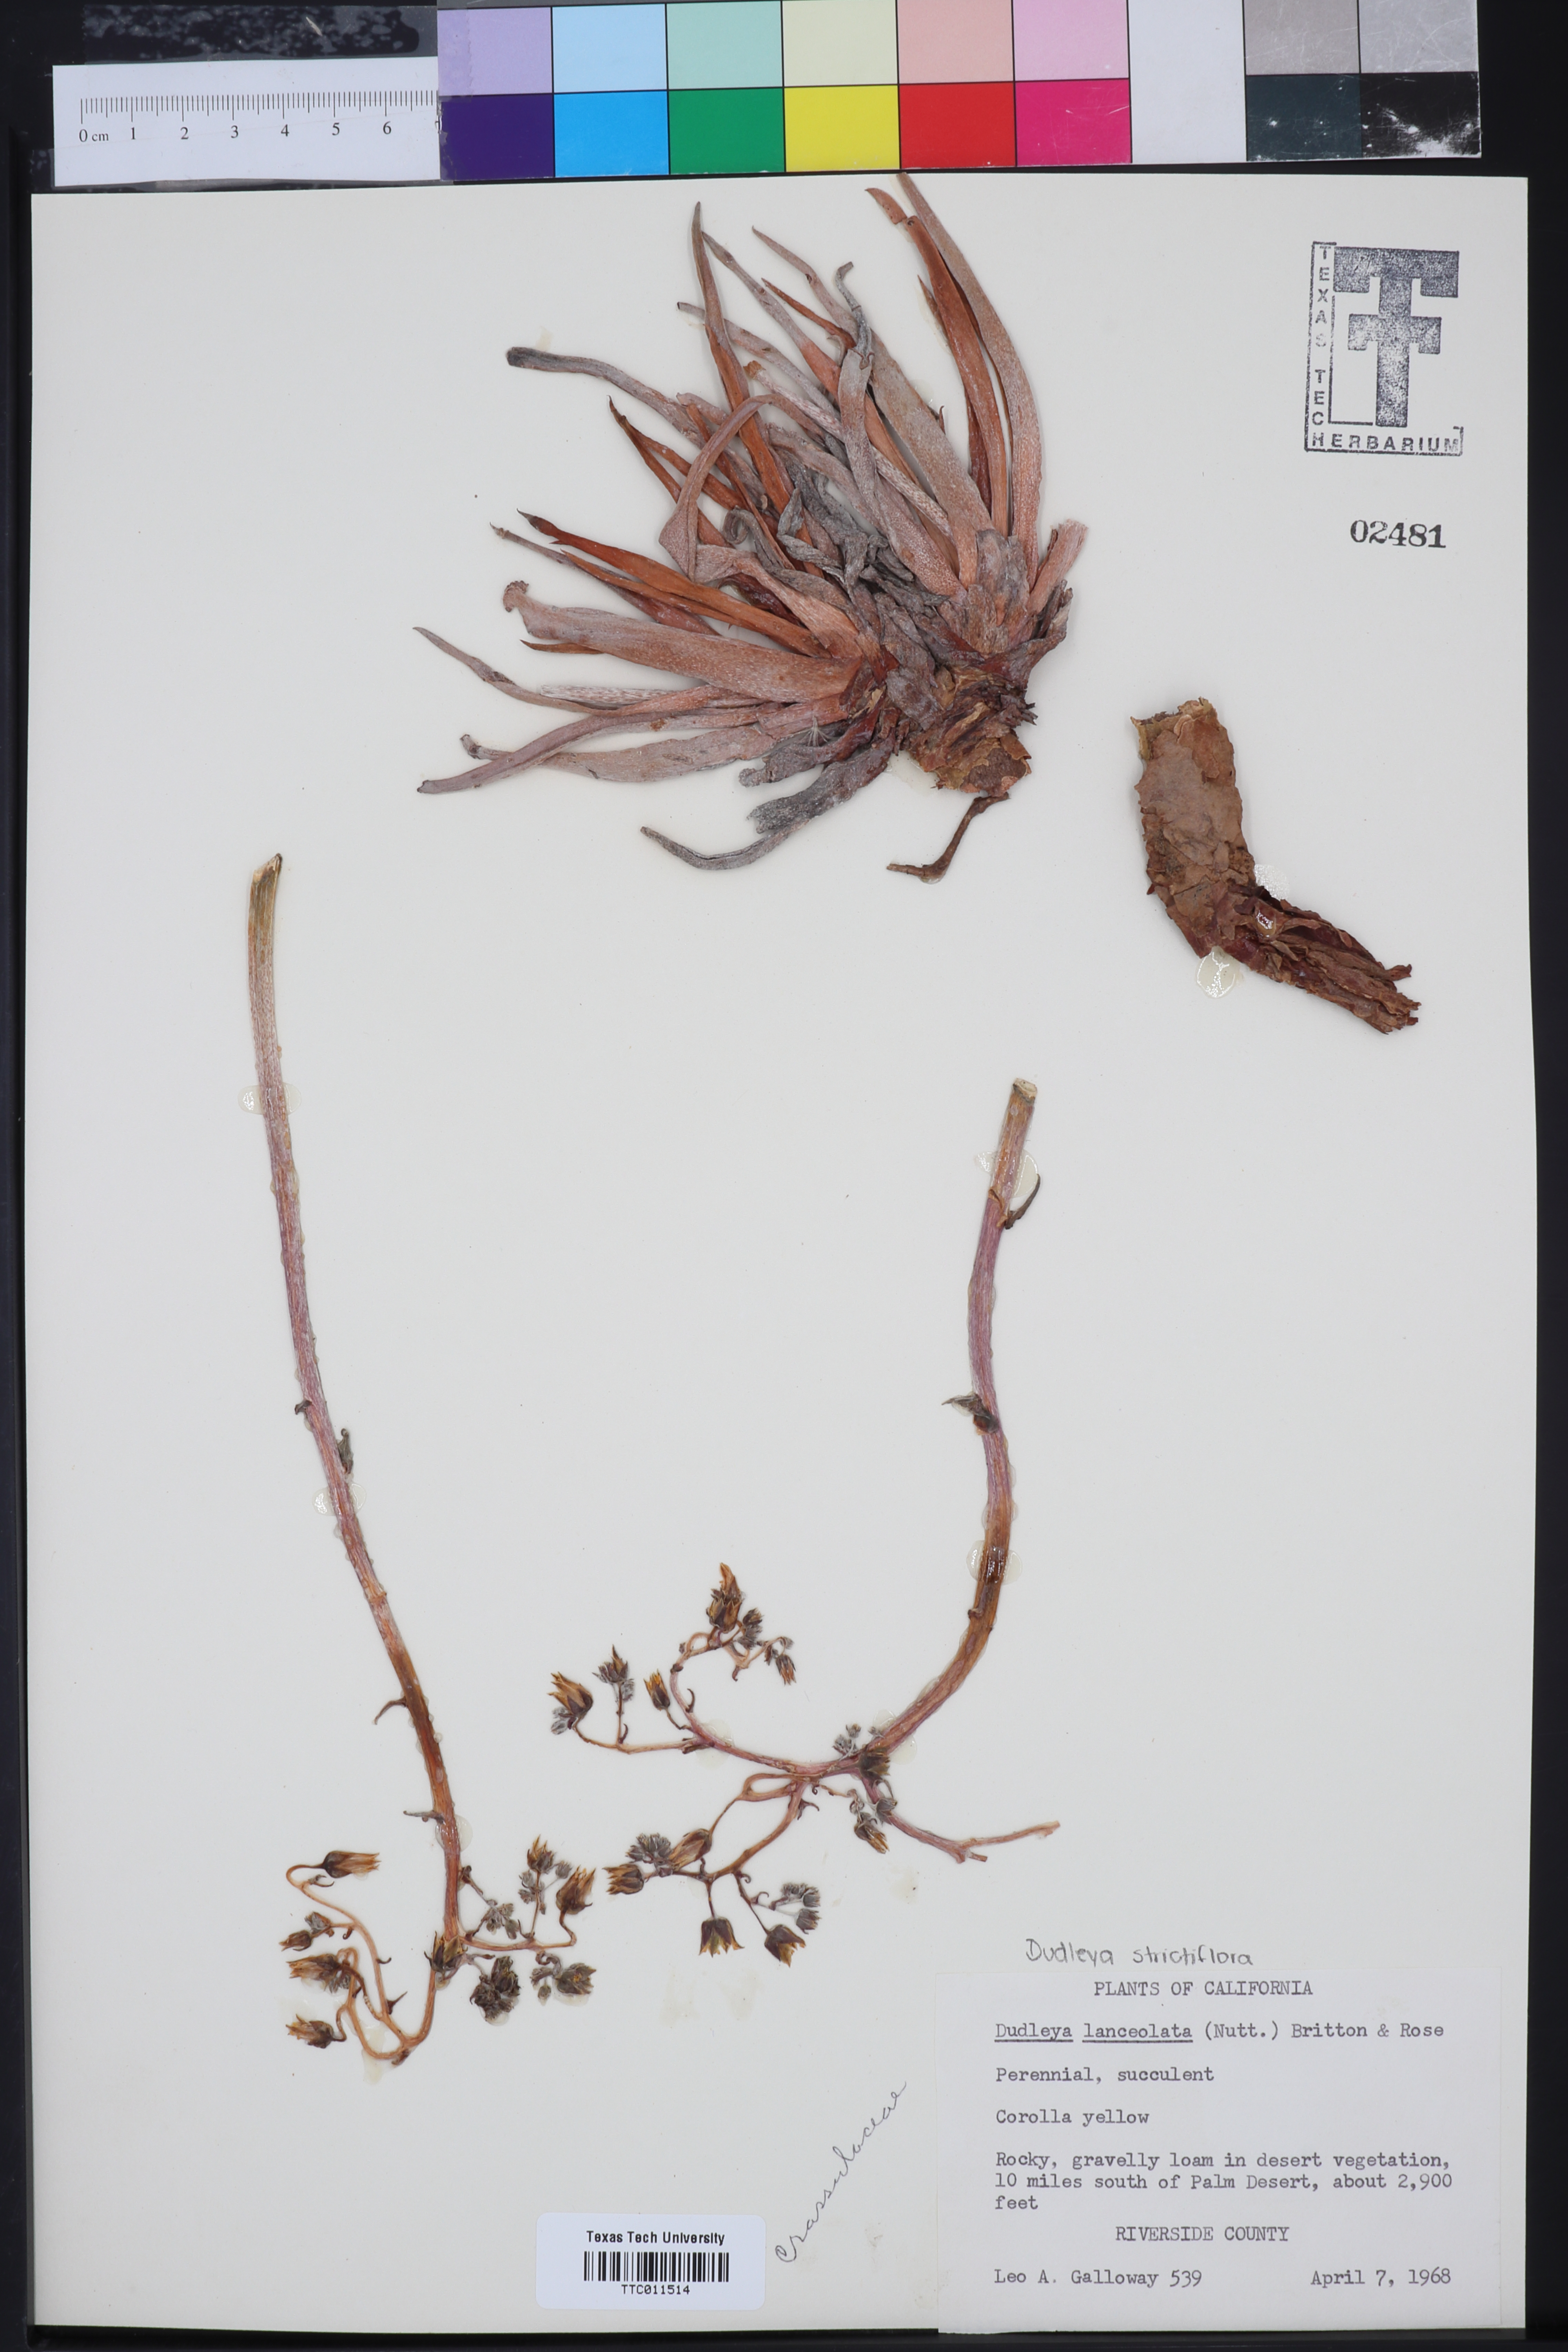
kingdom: Plantae
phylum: Tracheophyta
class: Magnoliopsida
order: Saxifragales
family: Crassulaceae
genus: Dudleya
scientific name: Dudleya lanceolata
